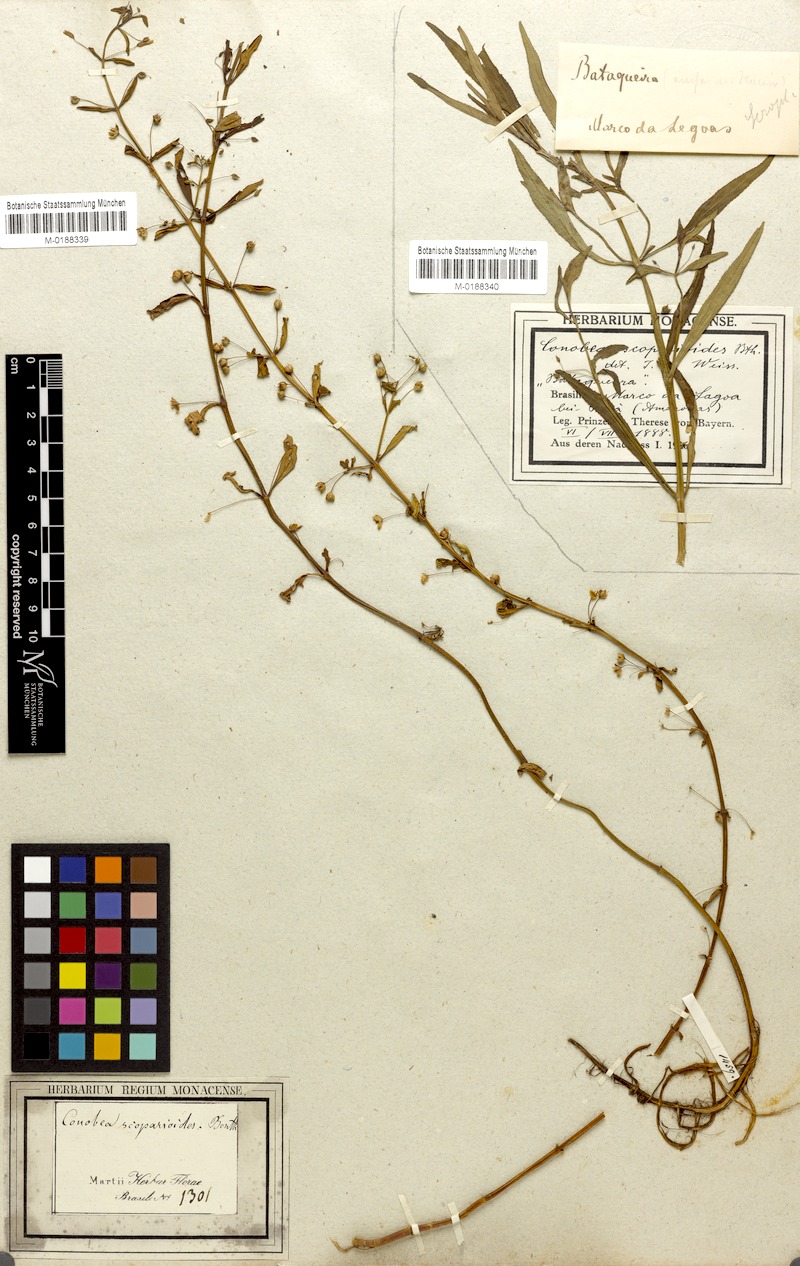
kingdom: Plantae
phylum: Tracheophyta
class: Magnoliopsida
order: Lamiales
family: Plantaginaceae
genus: Conobea
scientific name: Conobea scoparioides
